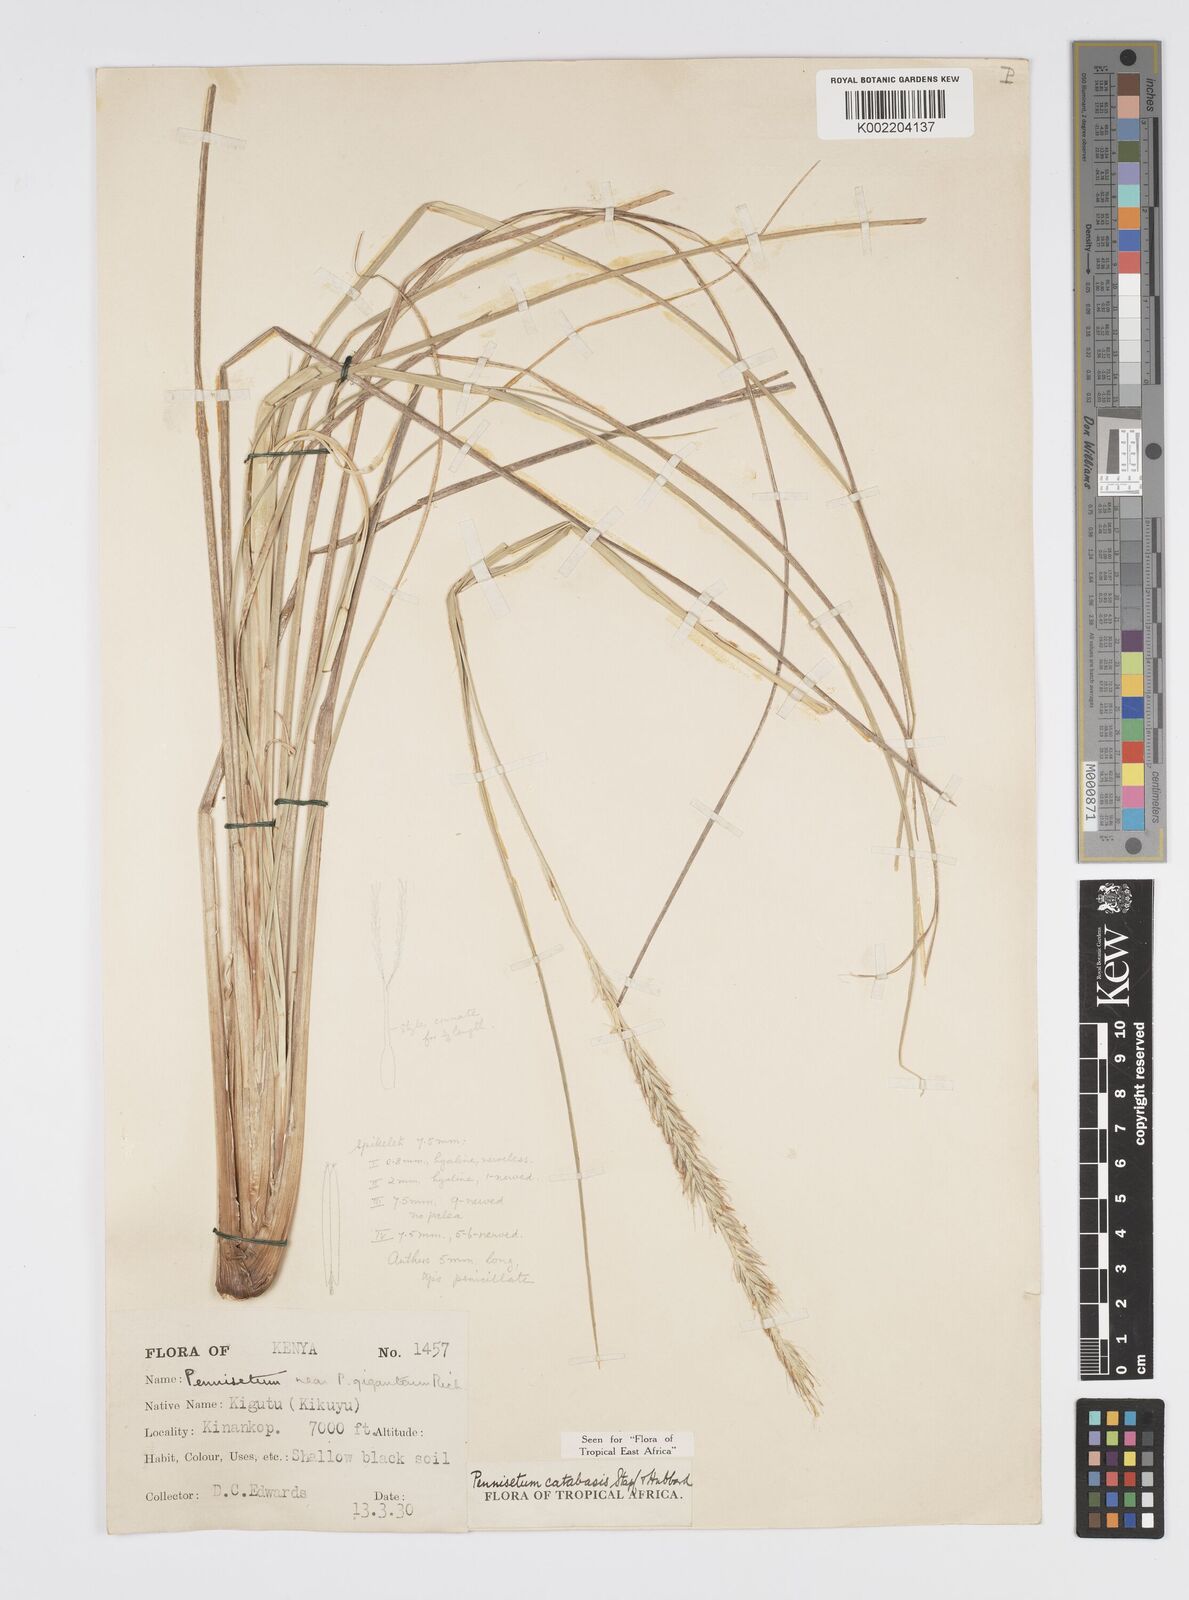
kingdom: Plantae
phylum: Tracheophyta
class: Liliopsida
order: Poales
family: Poaceae
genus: Cenchrus
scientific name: Cenchrus Pennisetum spec
